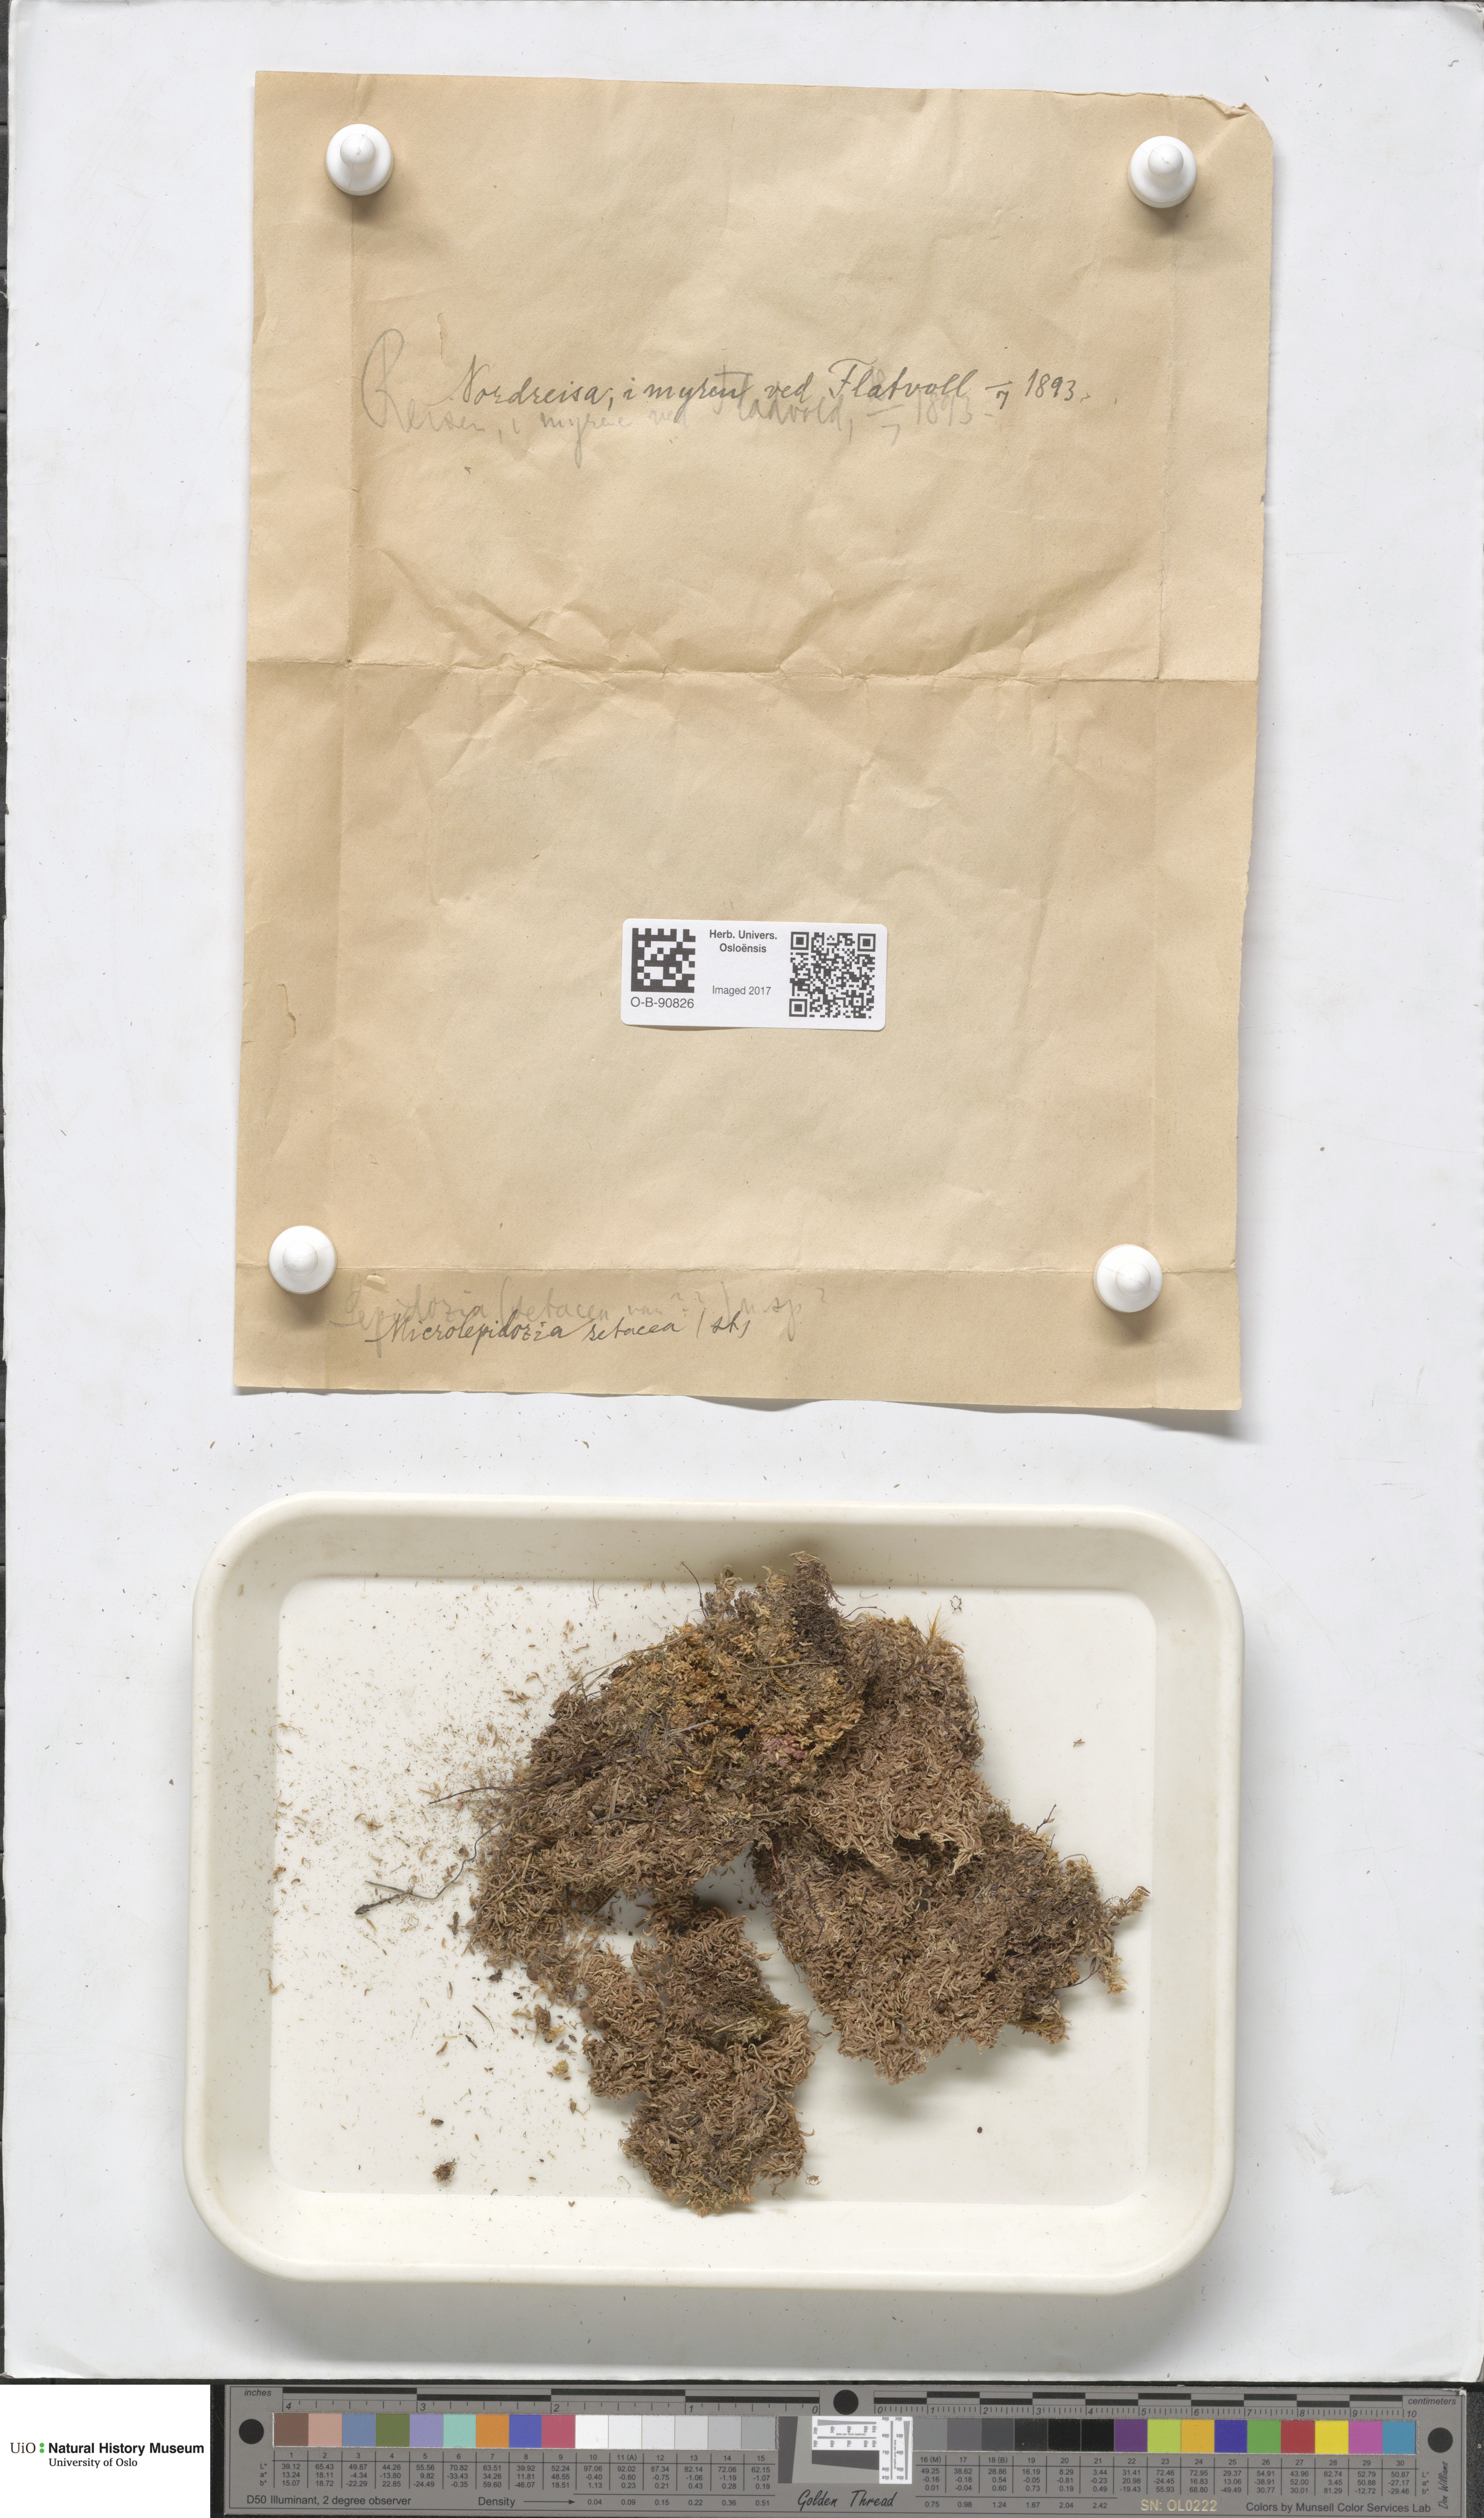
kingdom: Plantae
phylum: Marchantiophyta
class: Jungermanniopsida
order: Jungermanniales
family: Lepidoziaceae
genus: Kurzia
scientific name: Kurzia pauciflora
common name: Bristly fingerwort
